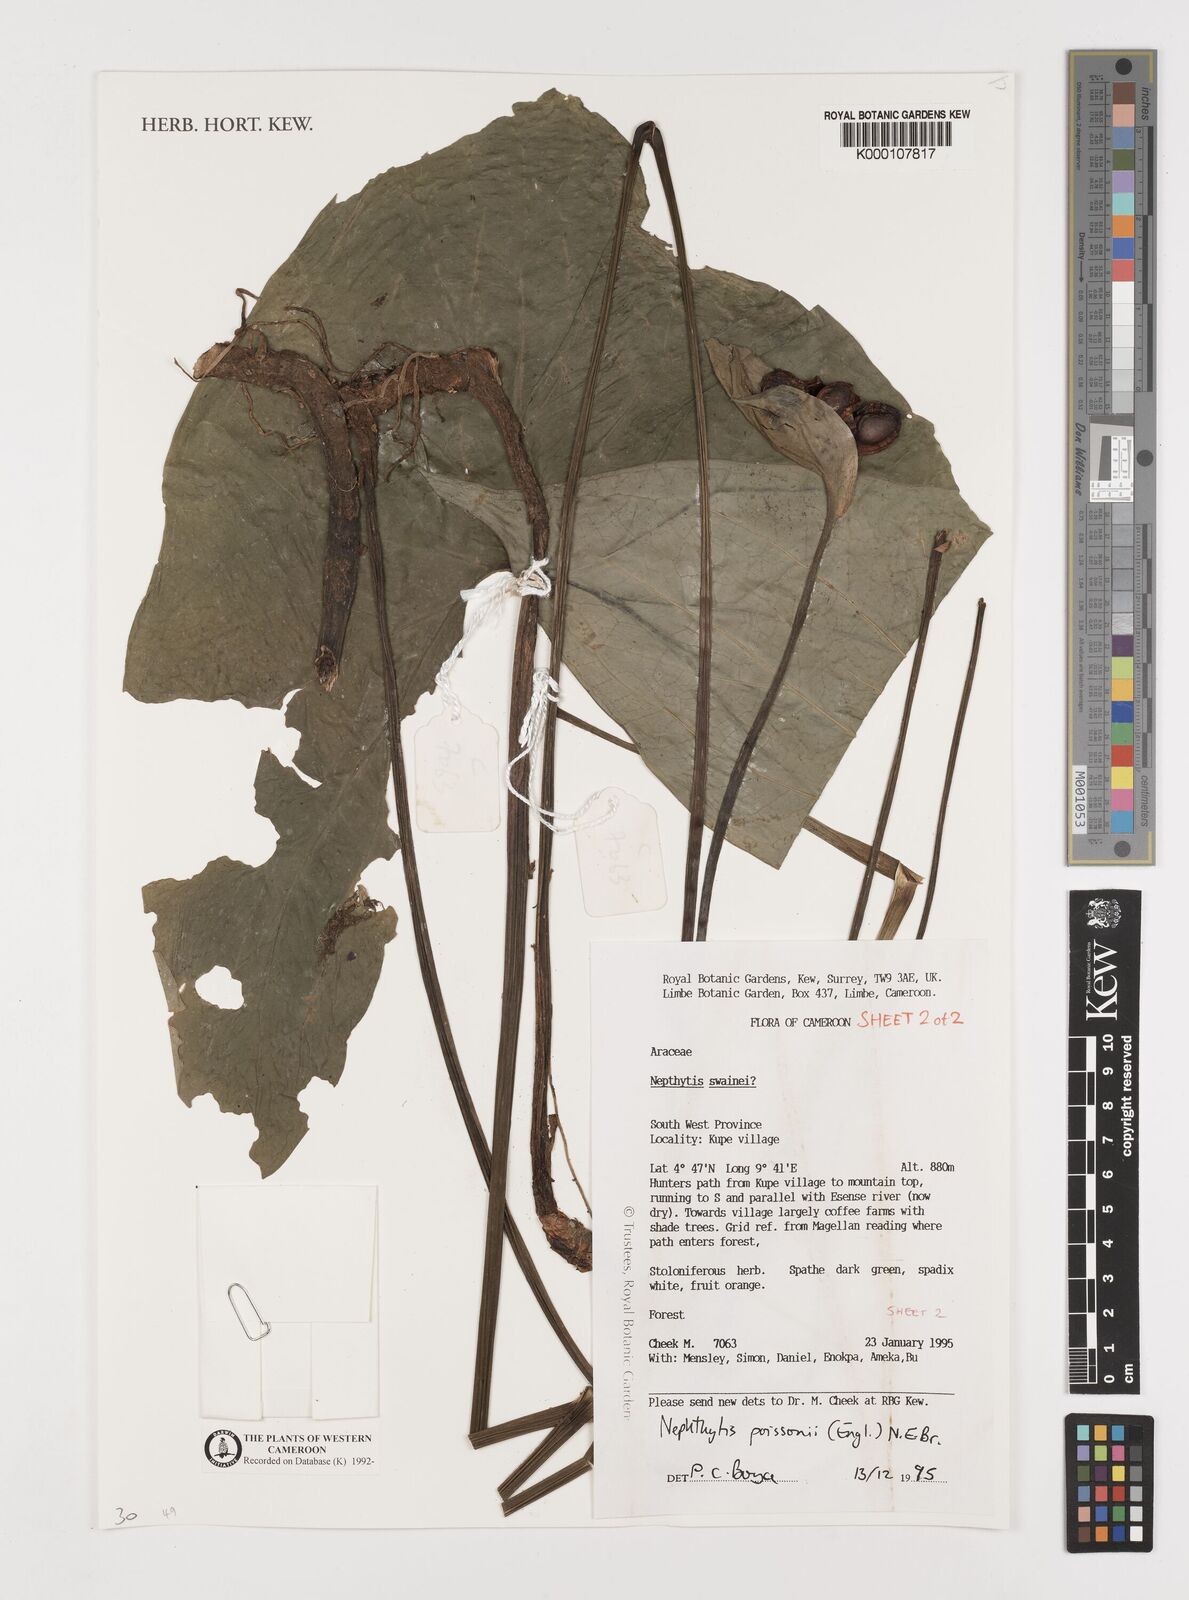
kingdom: Plantae
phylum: Tracheophyta
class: Liliopsida
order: Alismatales
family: Araceae
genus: Nephthytis
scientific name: Nephthytis poissonii
